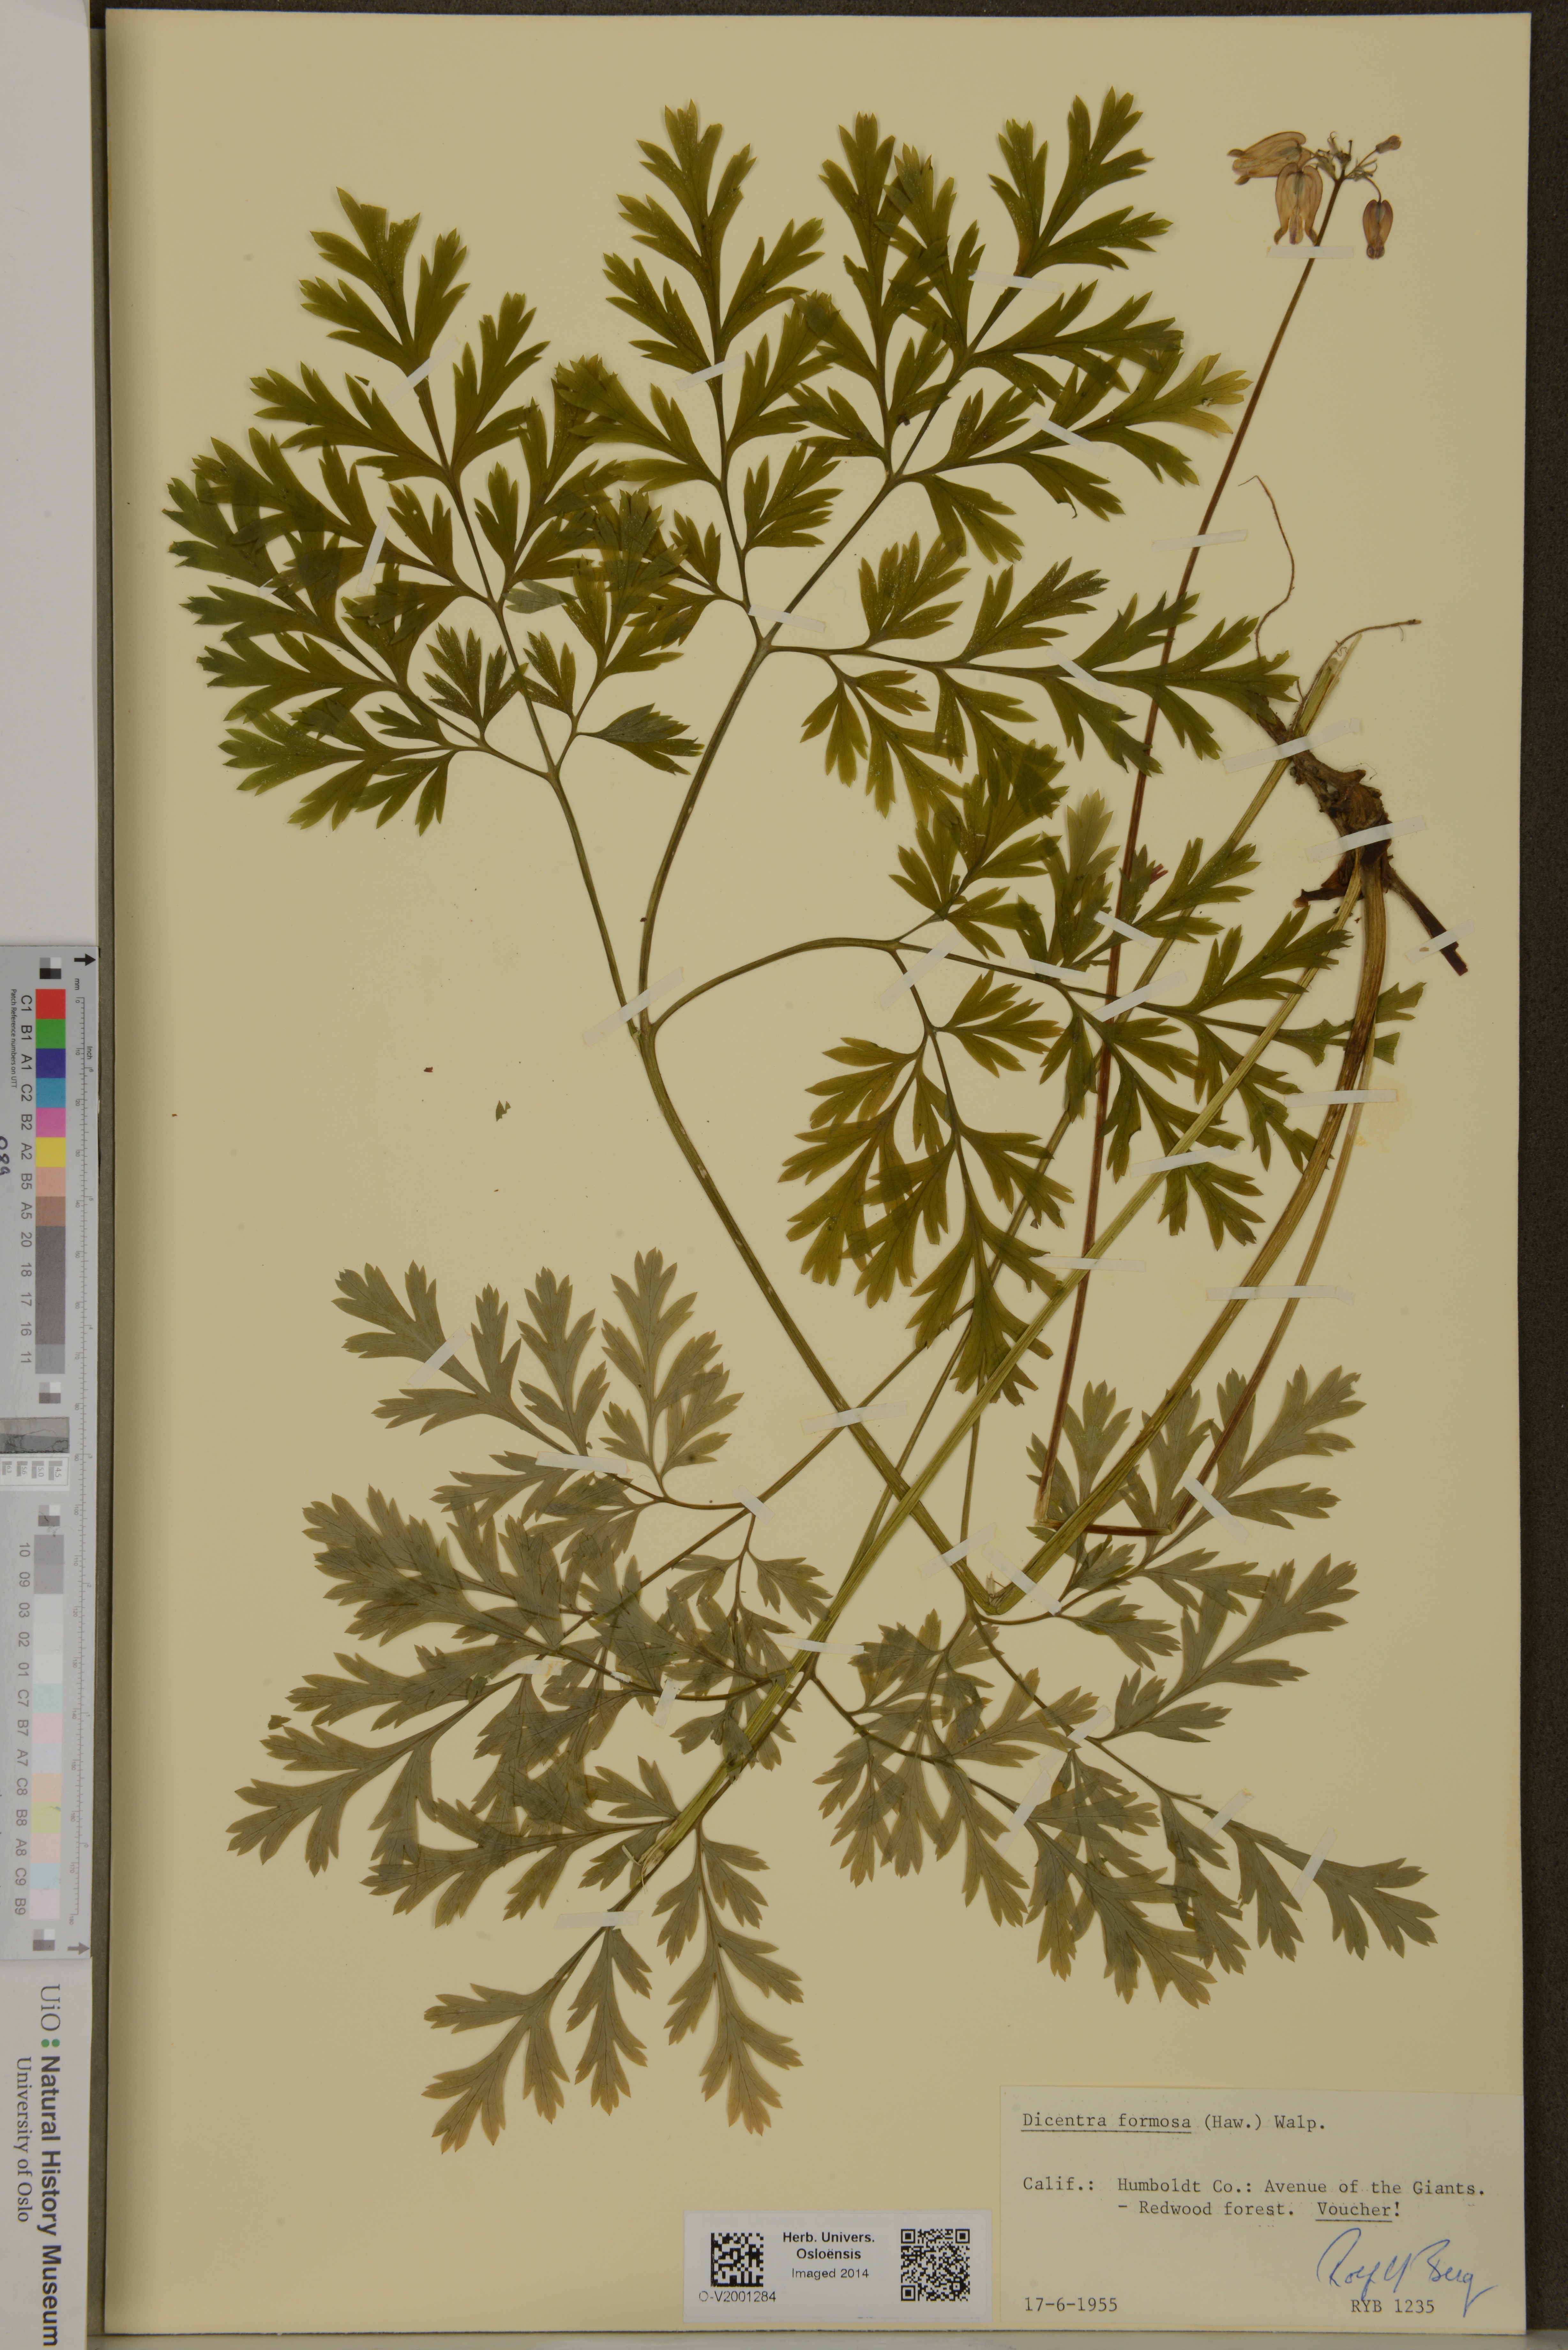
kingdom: Plantae
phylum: Tracheophyta
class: Magnoliopsida
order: Ranunculales
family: Papaveraceae
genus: Dicentra
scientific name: Dicentra formosa
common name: Bleeding-heart
